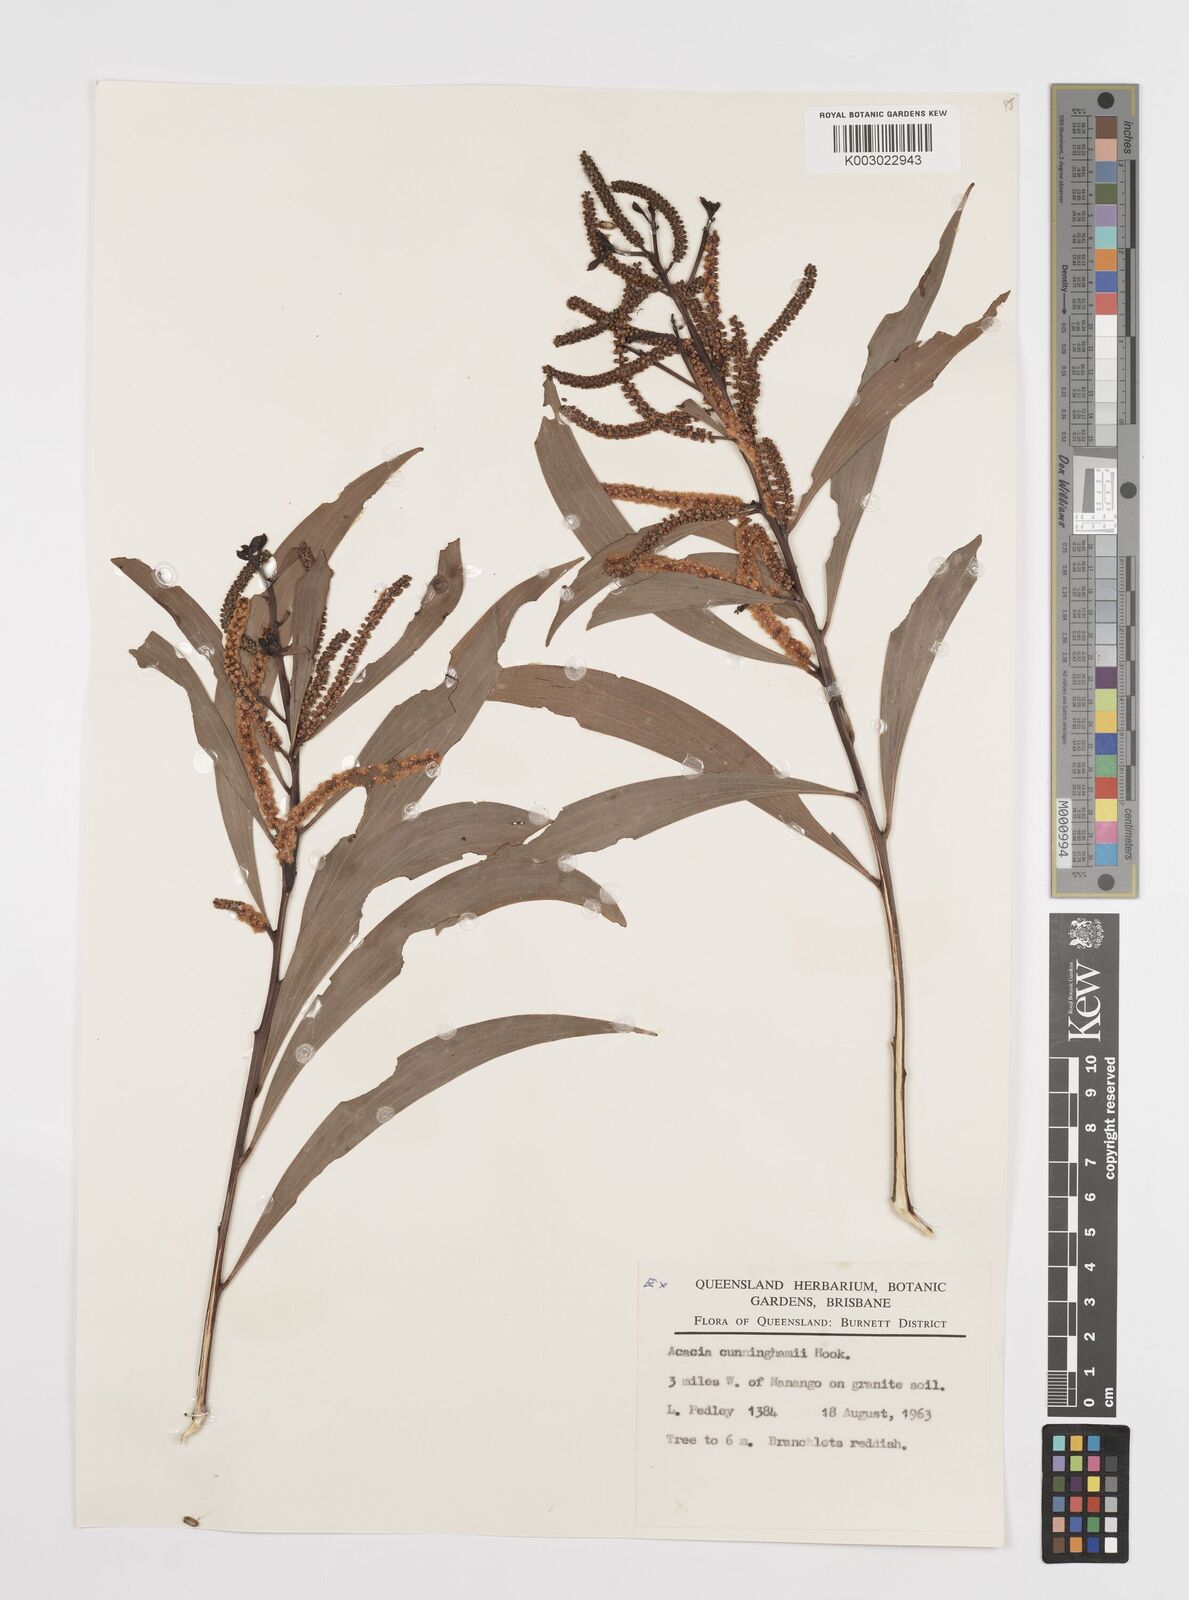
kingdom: Plantae
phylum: Tracheophyta
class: Magnoliopsida
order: Fabales
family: Fabaceae
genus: Acacia
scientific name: Acacia longispicata
